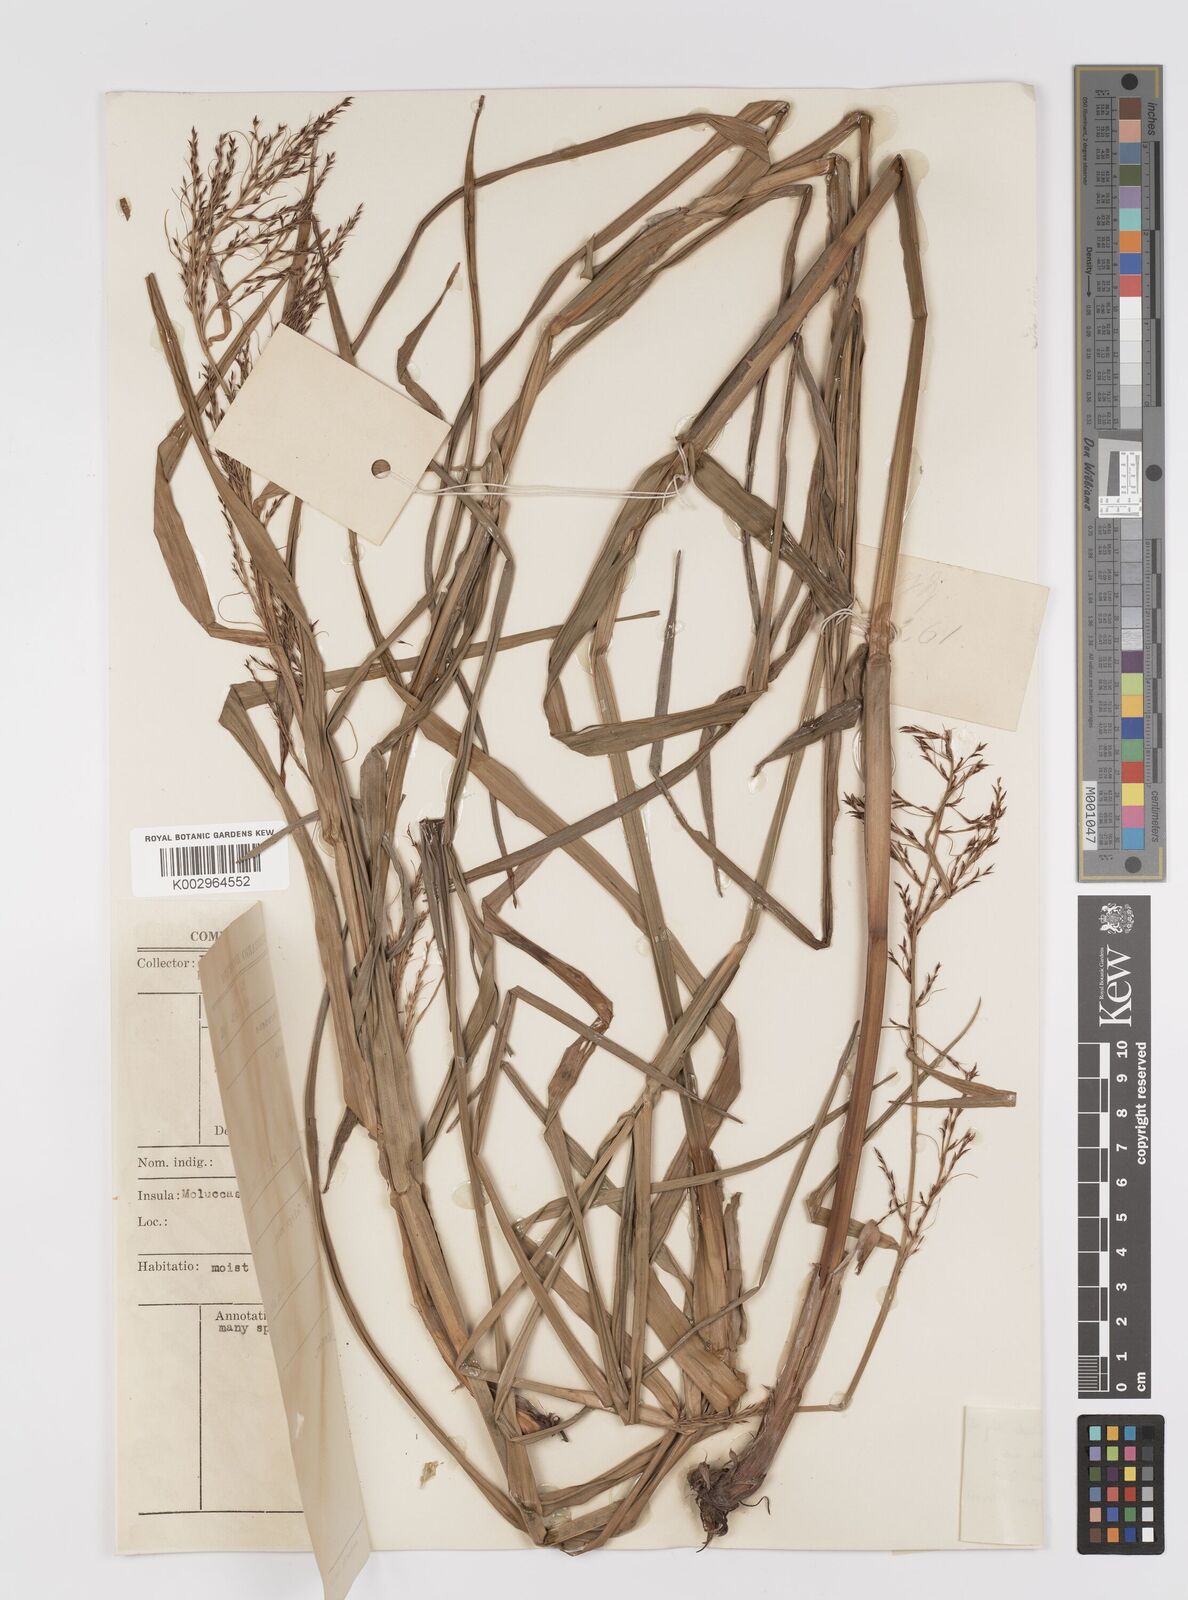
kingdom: Plantae
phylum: Tracheophyta
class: Liliopsida
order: Poales
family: Cyperaceae
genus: Scleria
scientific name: Scleria scrobiculata
